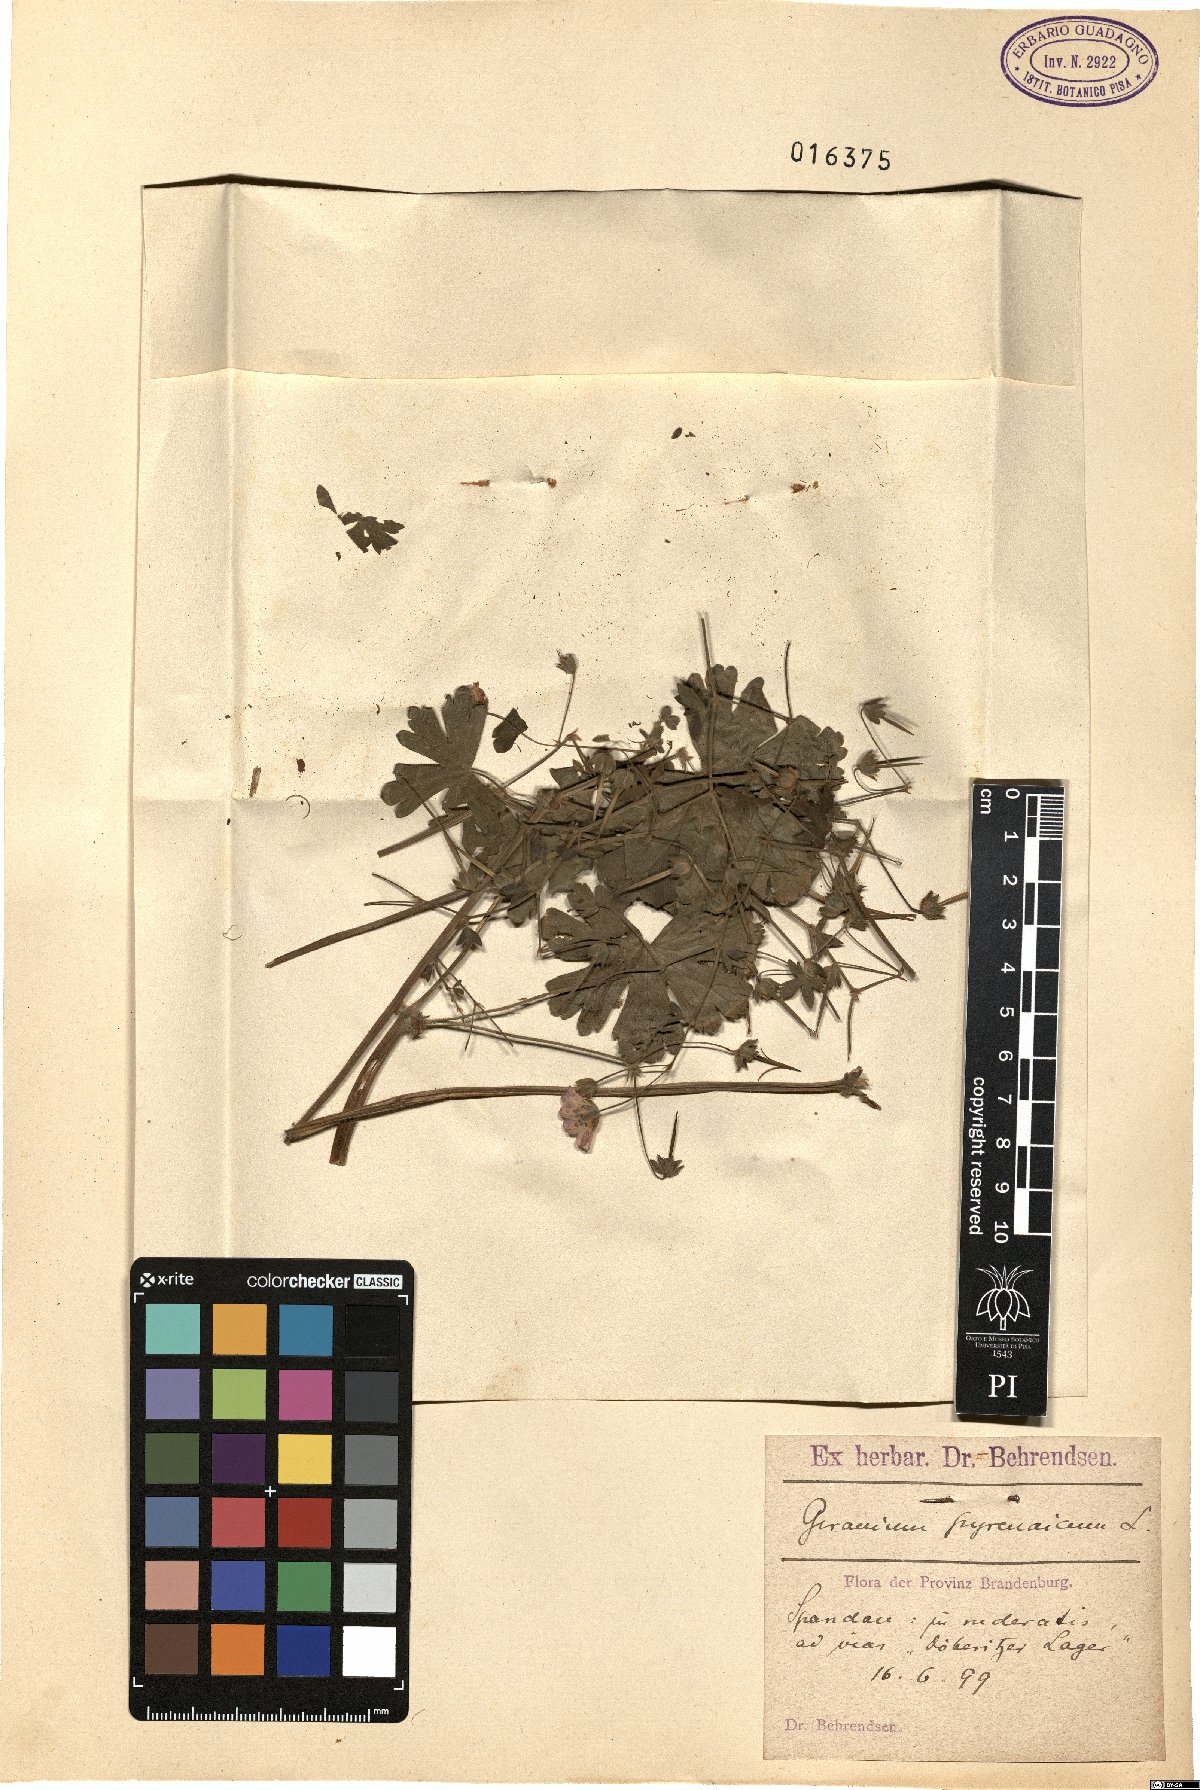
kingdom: Plantae
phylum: Tracheophyta
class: Magnoliopsida
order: Geraniales
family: Geraniaceae
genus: Geranium
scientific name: Geranium pyrenaicum
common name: Hedgerow crane's-bill
